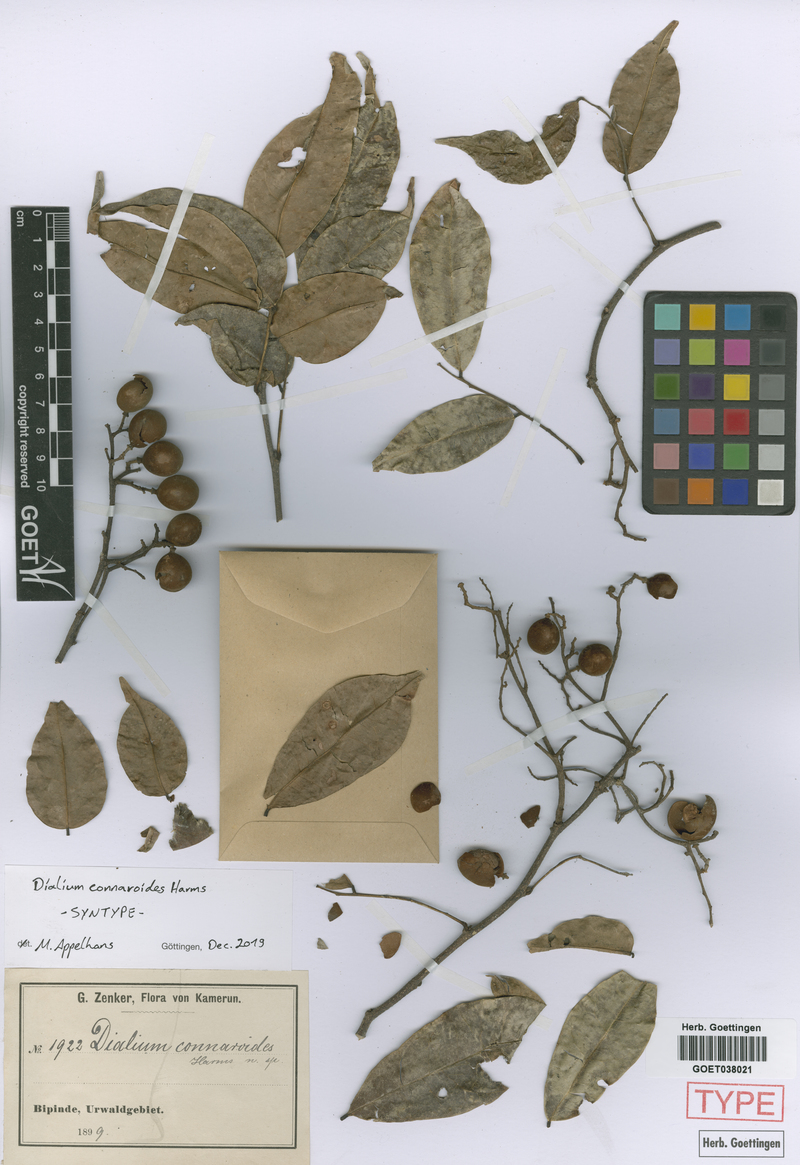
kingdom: Plantae
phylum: Tracheophyta
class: Magnoliopsida
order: Fabales
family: Fabaceae
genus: Dialium
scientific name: Dialium bipindense
